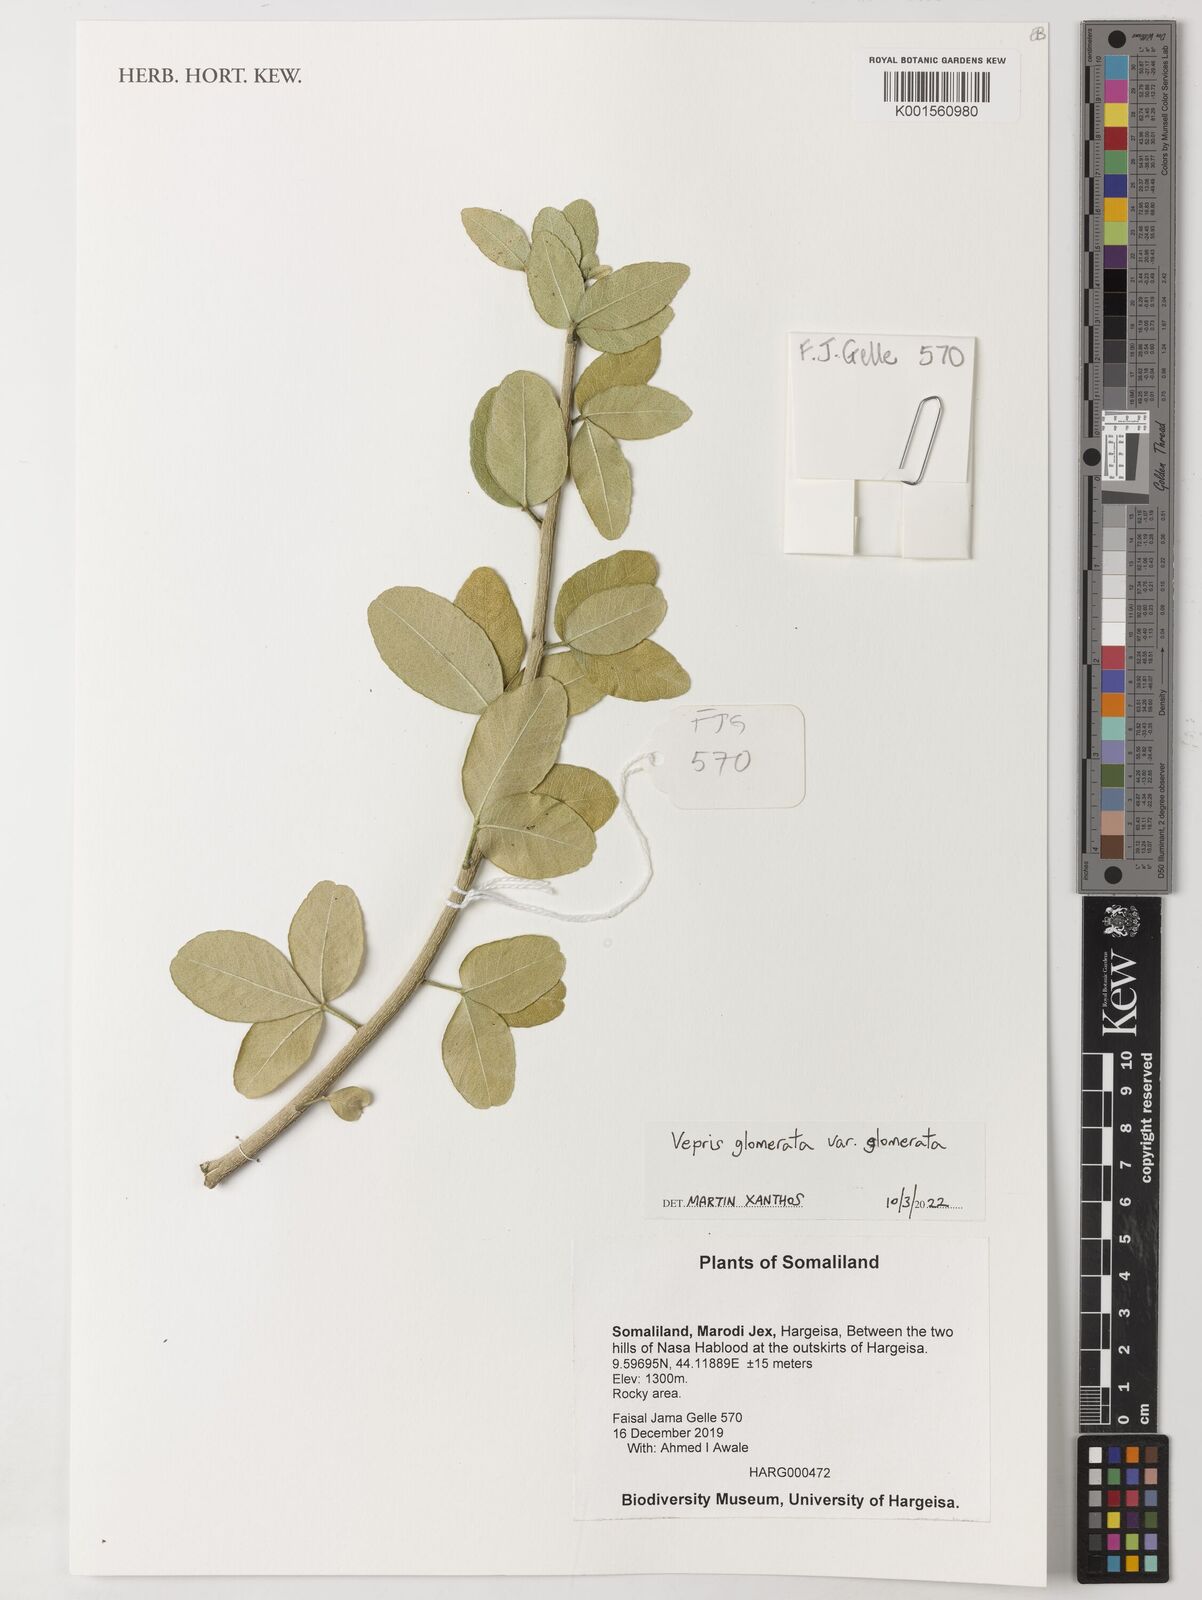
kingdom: Plantae
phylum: Tracheophyta
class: Magnoliopsida
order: Sapindales
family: Rutaceae
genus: Vepris
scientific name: Vepris glomerata
